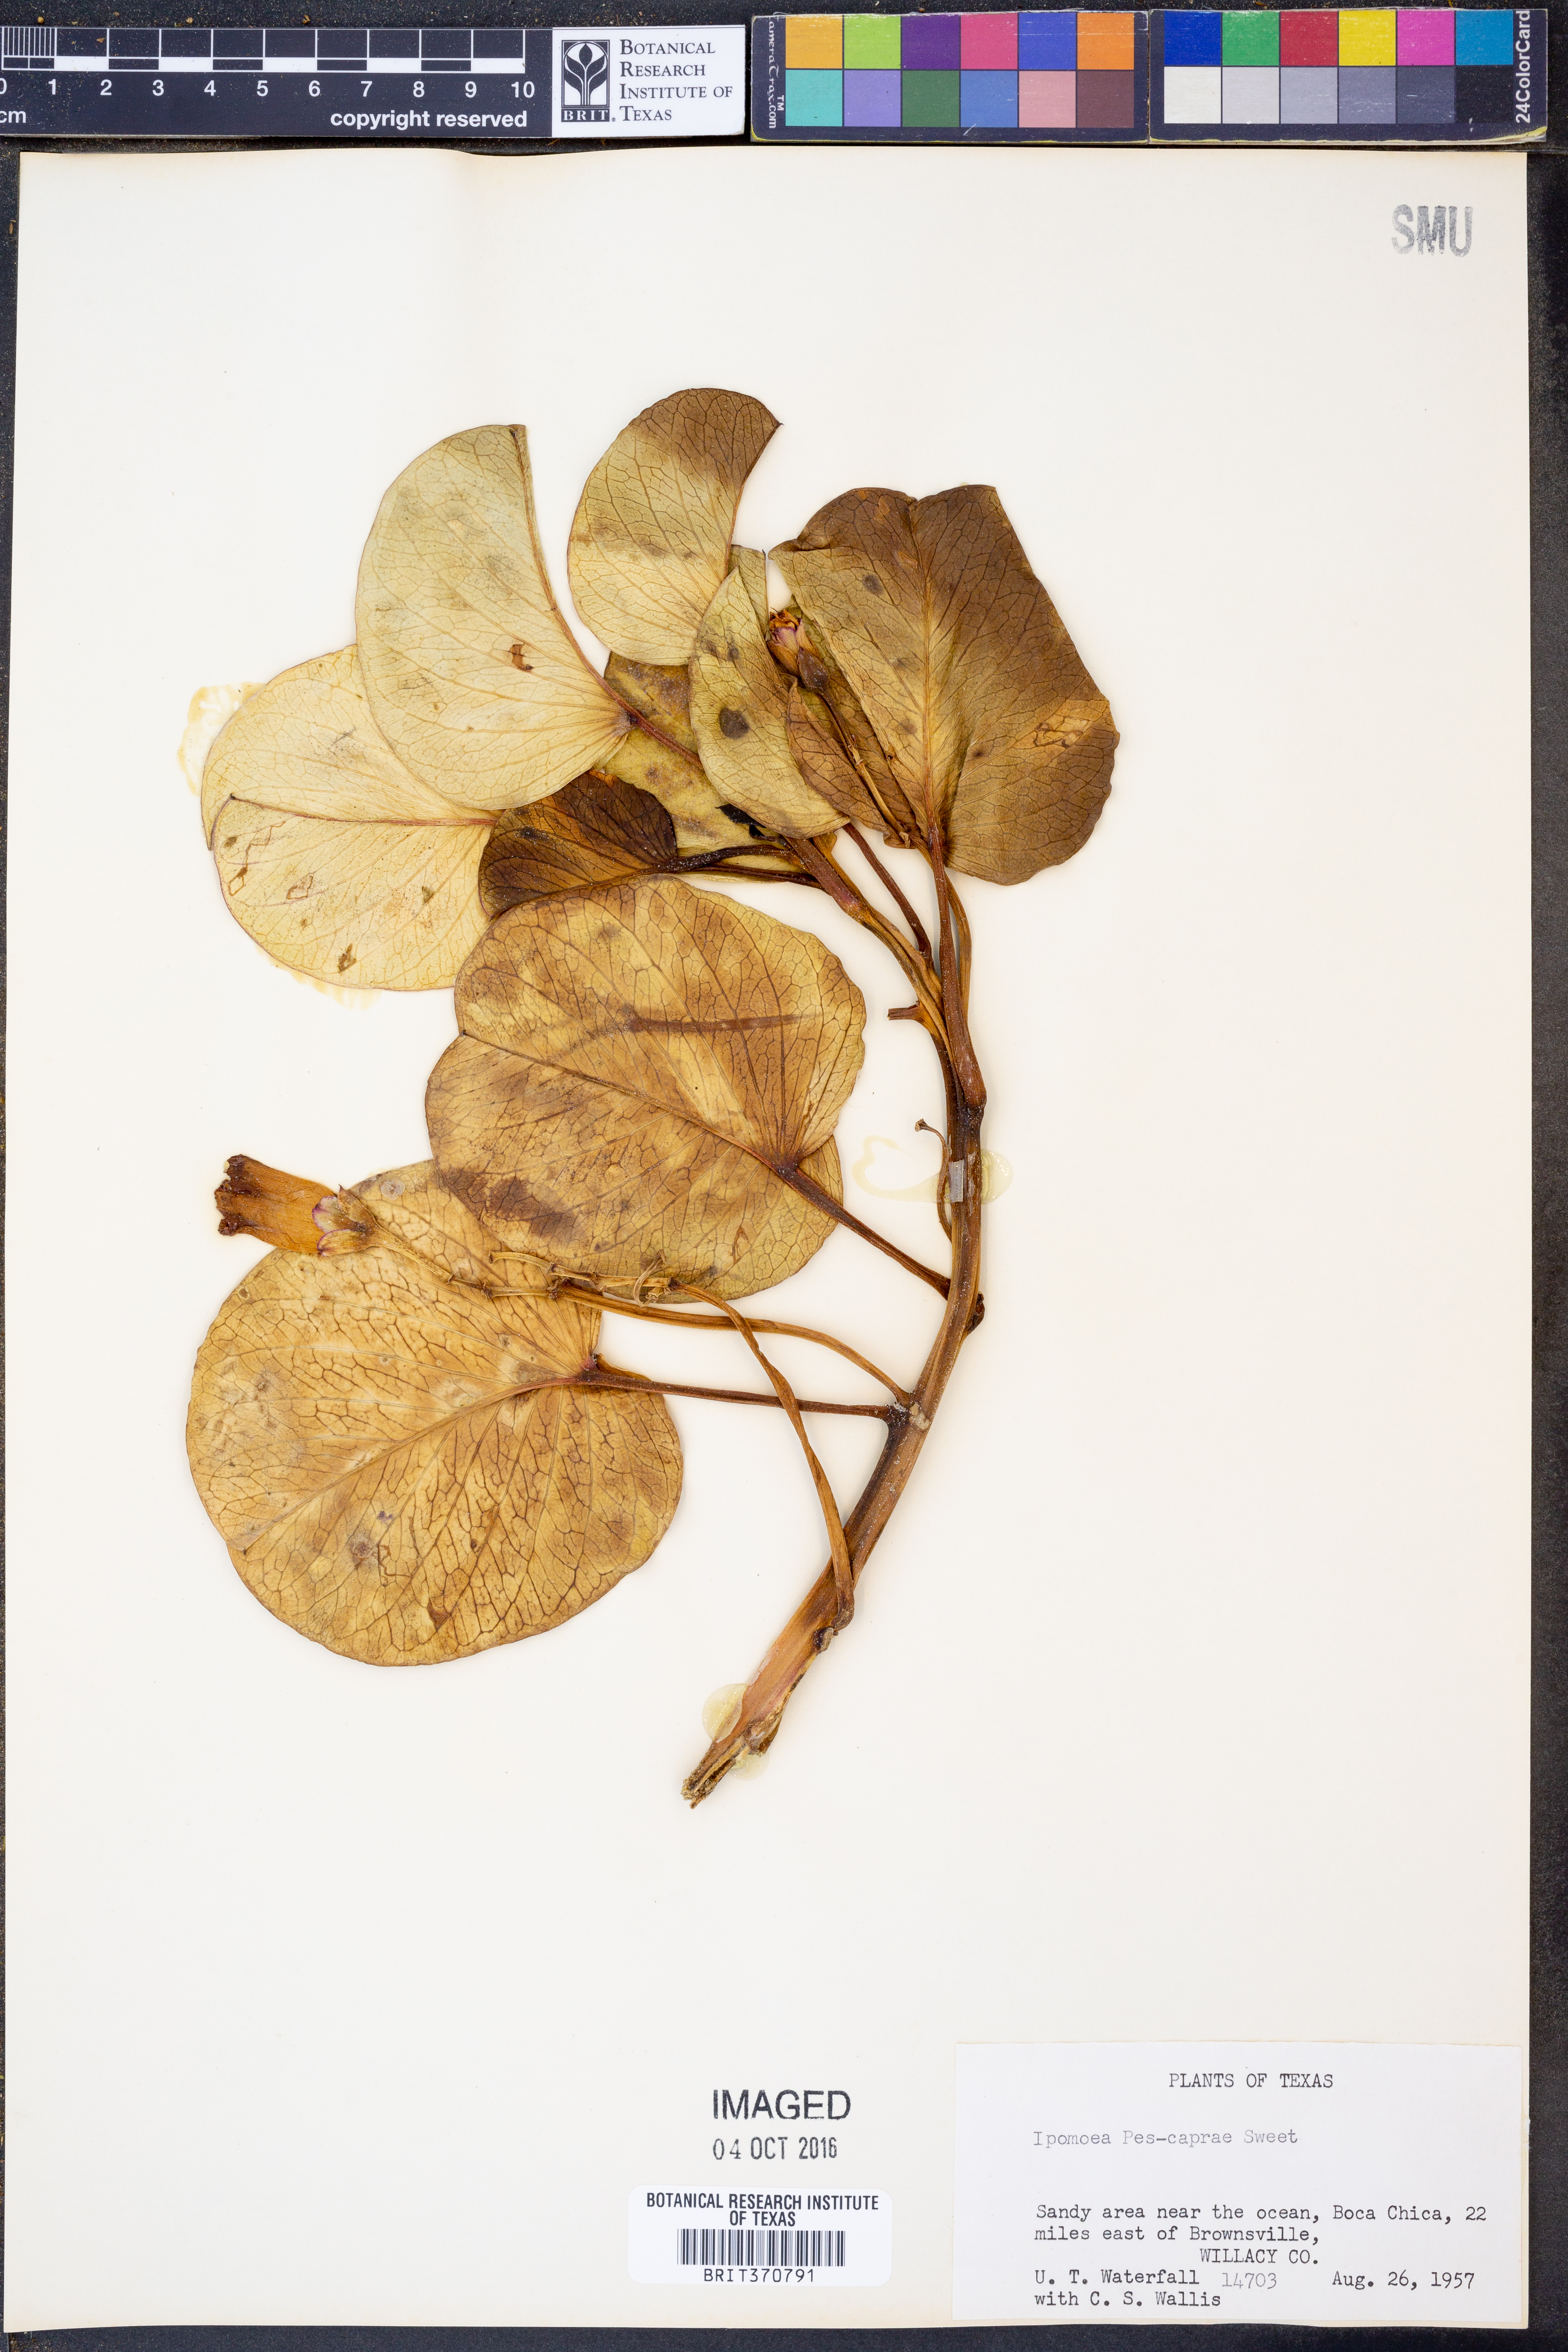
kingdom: Plantae
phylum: Tracheophyta
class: Magnoliopsida
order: Solanales
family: Convolvulaceae
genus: Ipomoea
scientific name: Ipomoea pes-caprae
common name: Beach morning glory
